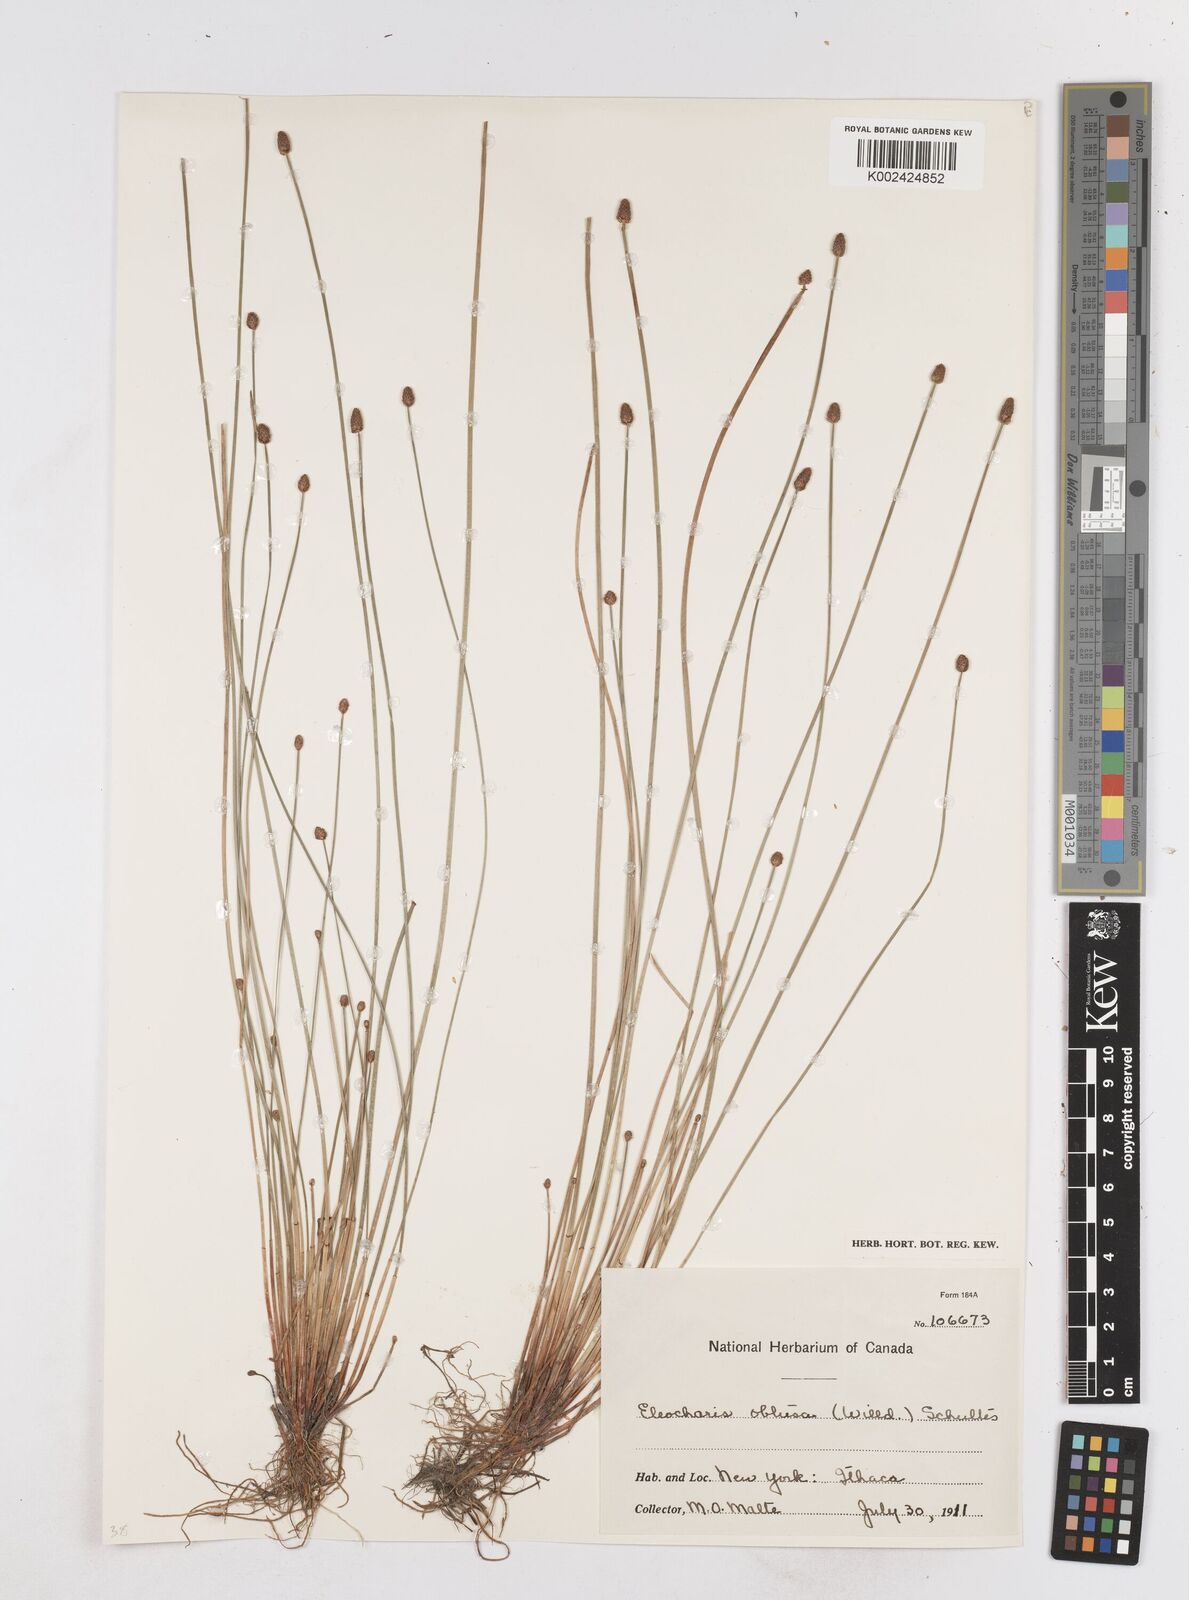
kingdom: Plantae
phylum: Tracheophyta
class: Liliopsida
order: Poales
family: Cyperaceae
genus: Eleocharis
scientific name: Eleocharis obtusa
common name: Blunt spikerush
